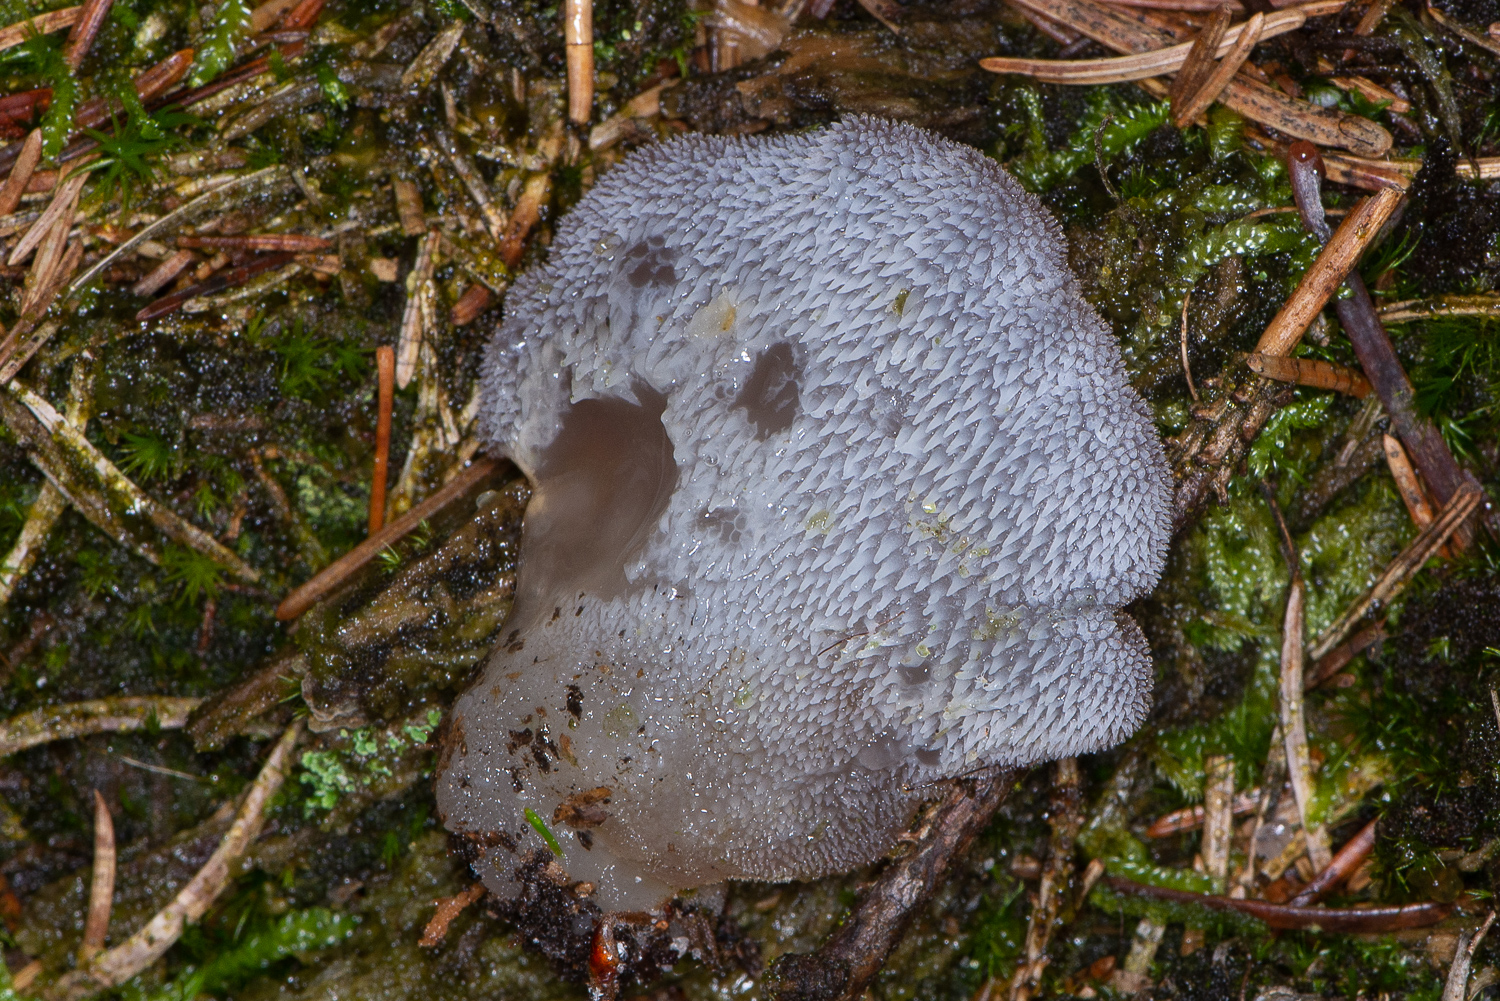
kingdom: Fungi
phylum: Basidiomycota
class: Agaricomycetes
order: Auriculariales
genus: Pseudohydnum
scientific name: Pseudohydnum gelatinosum
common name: bævretand
